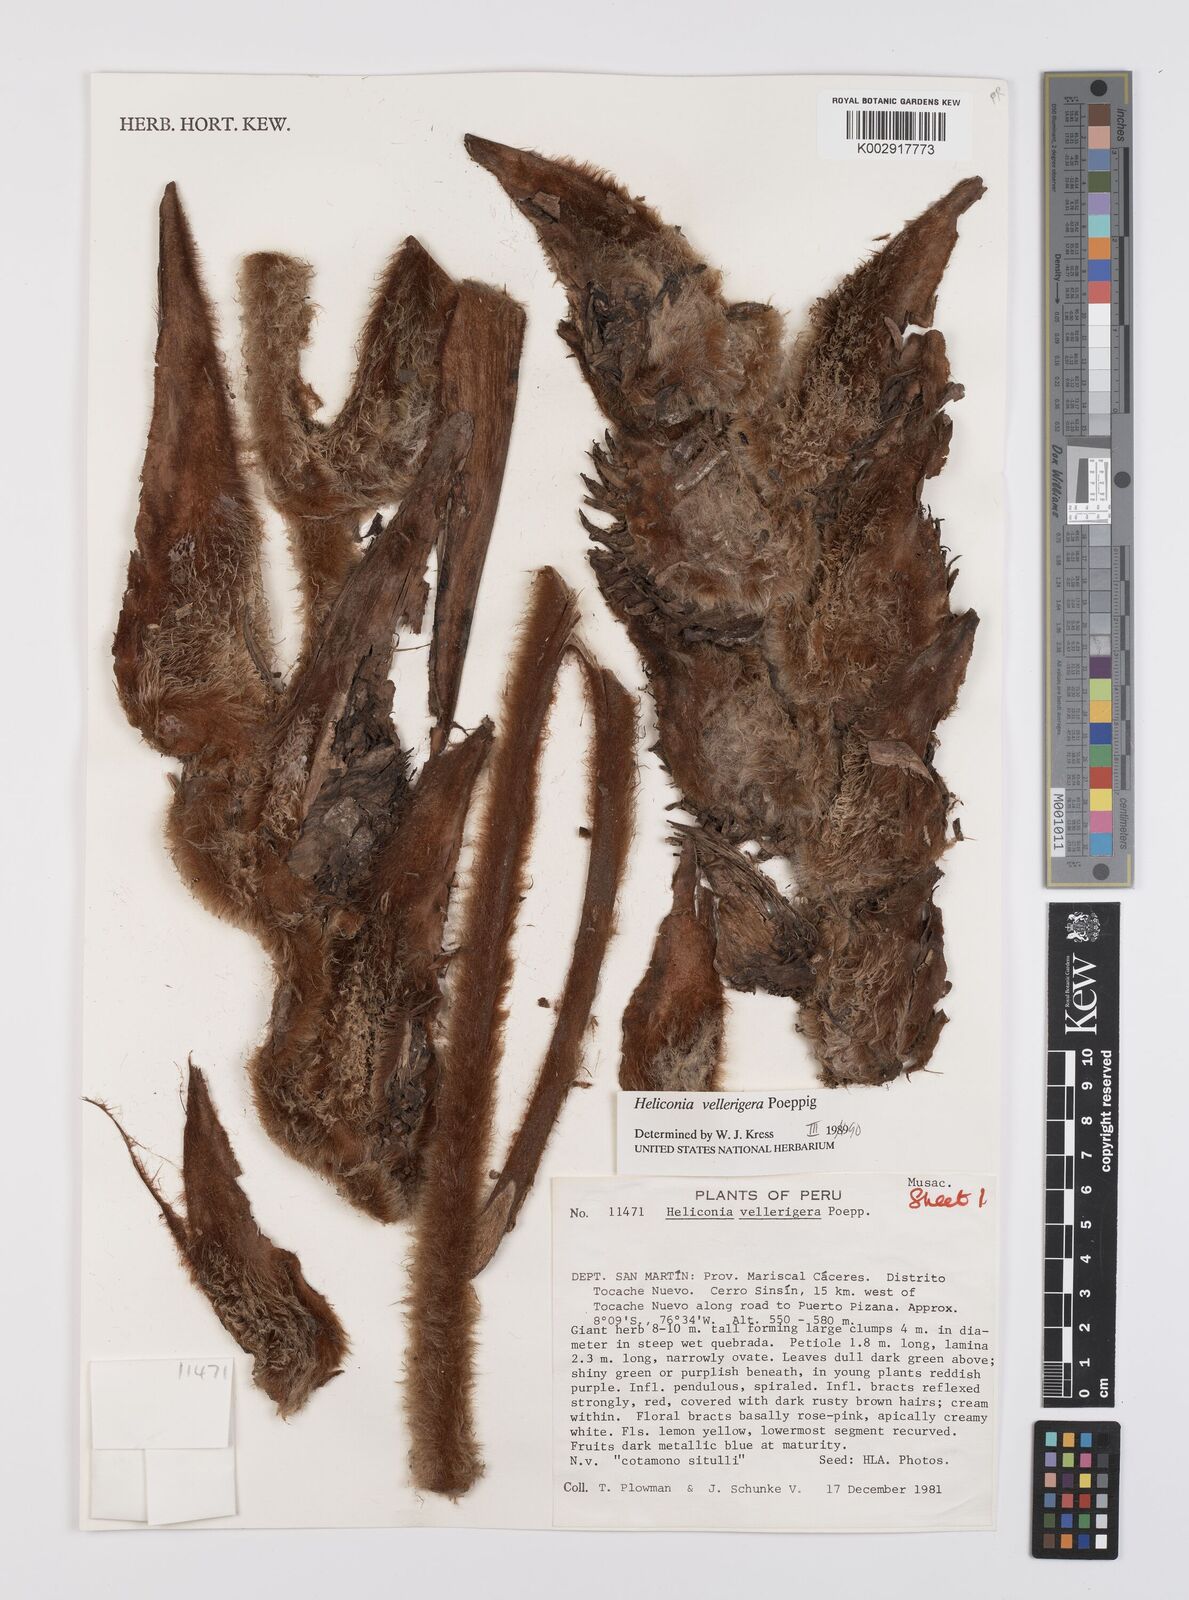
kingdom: Plantae
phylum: Tracheophyta
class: Liliopsida
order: Zingiberales
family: Heliconiaceae
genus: Heliconia
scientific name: Heliconia vellerigera
